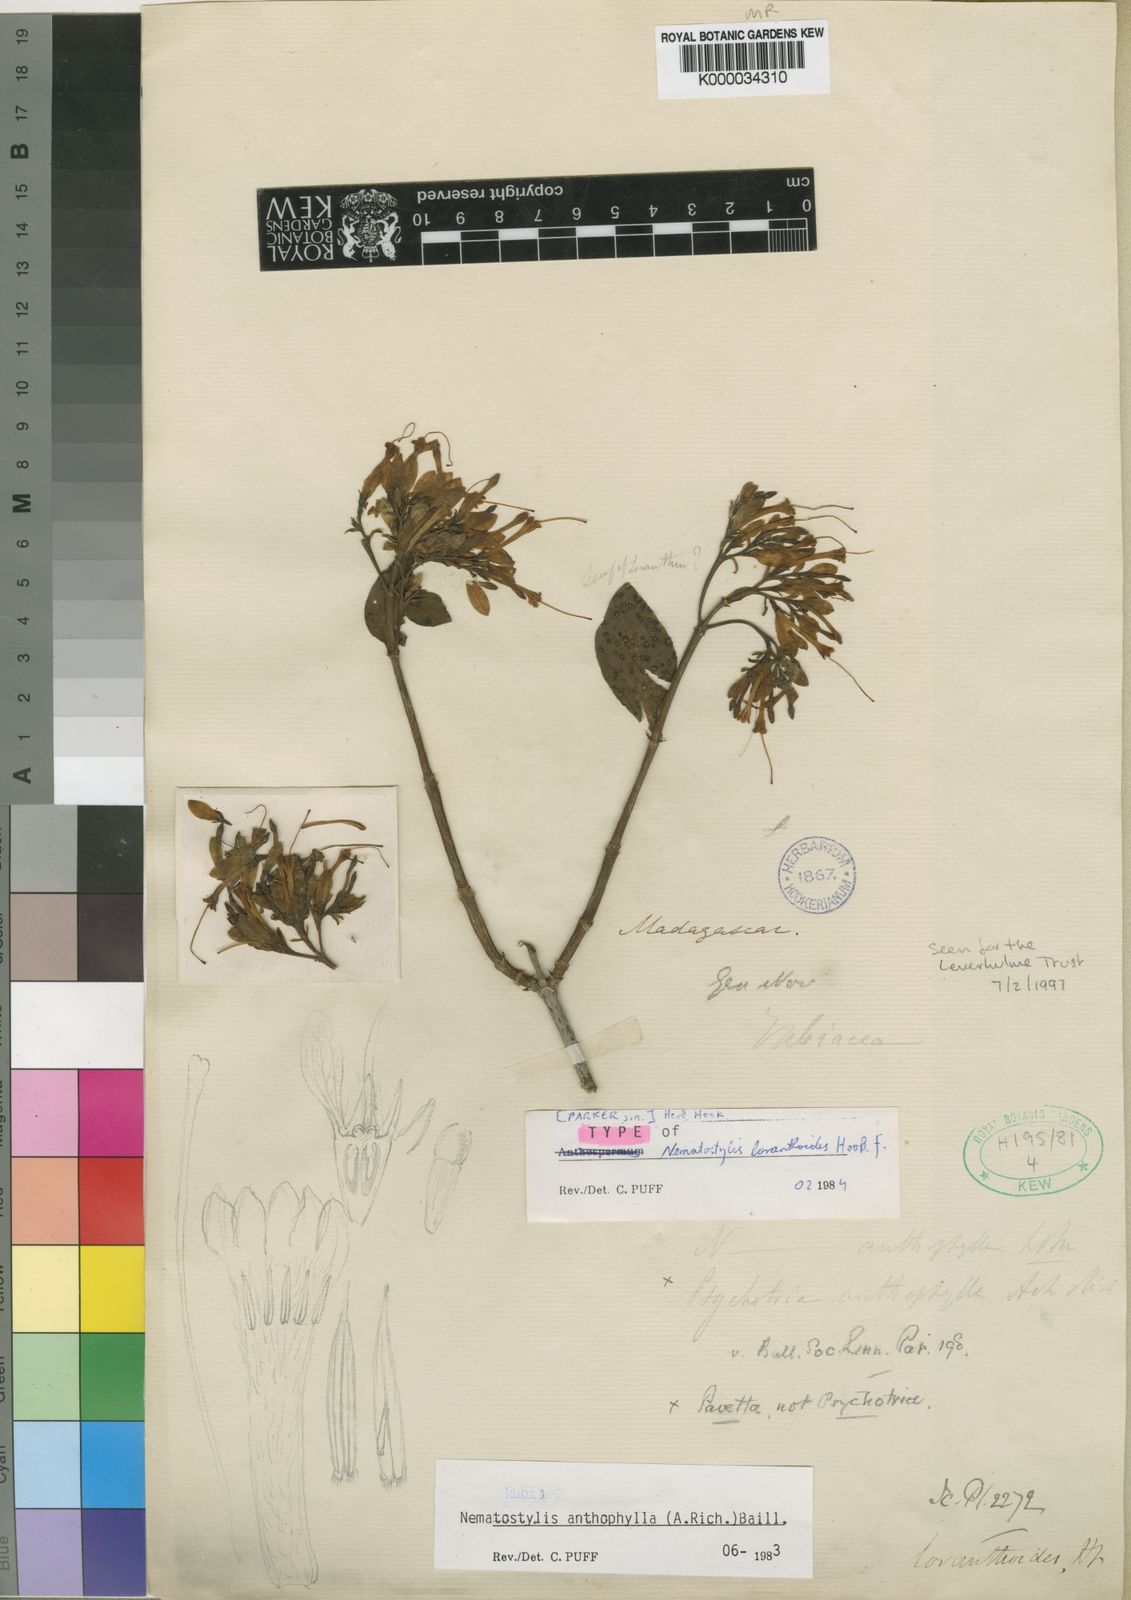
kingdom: Plantae
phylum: Tracheophyta
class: Magnoliopsida
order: Gentianales
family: Rubiaceae
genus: Nematostylis
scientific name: Nematostylis anthophylla
